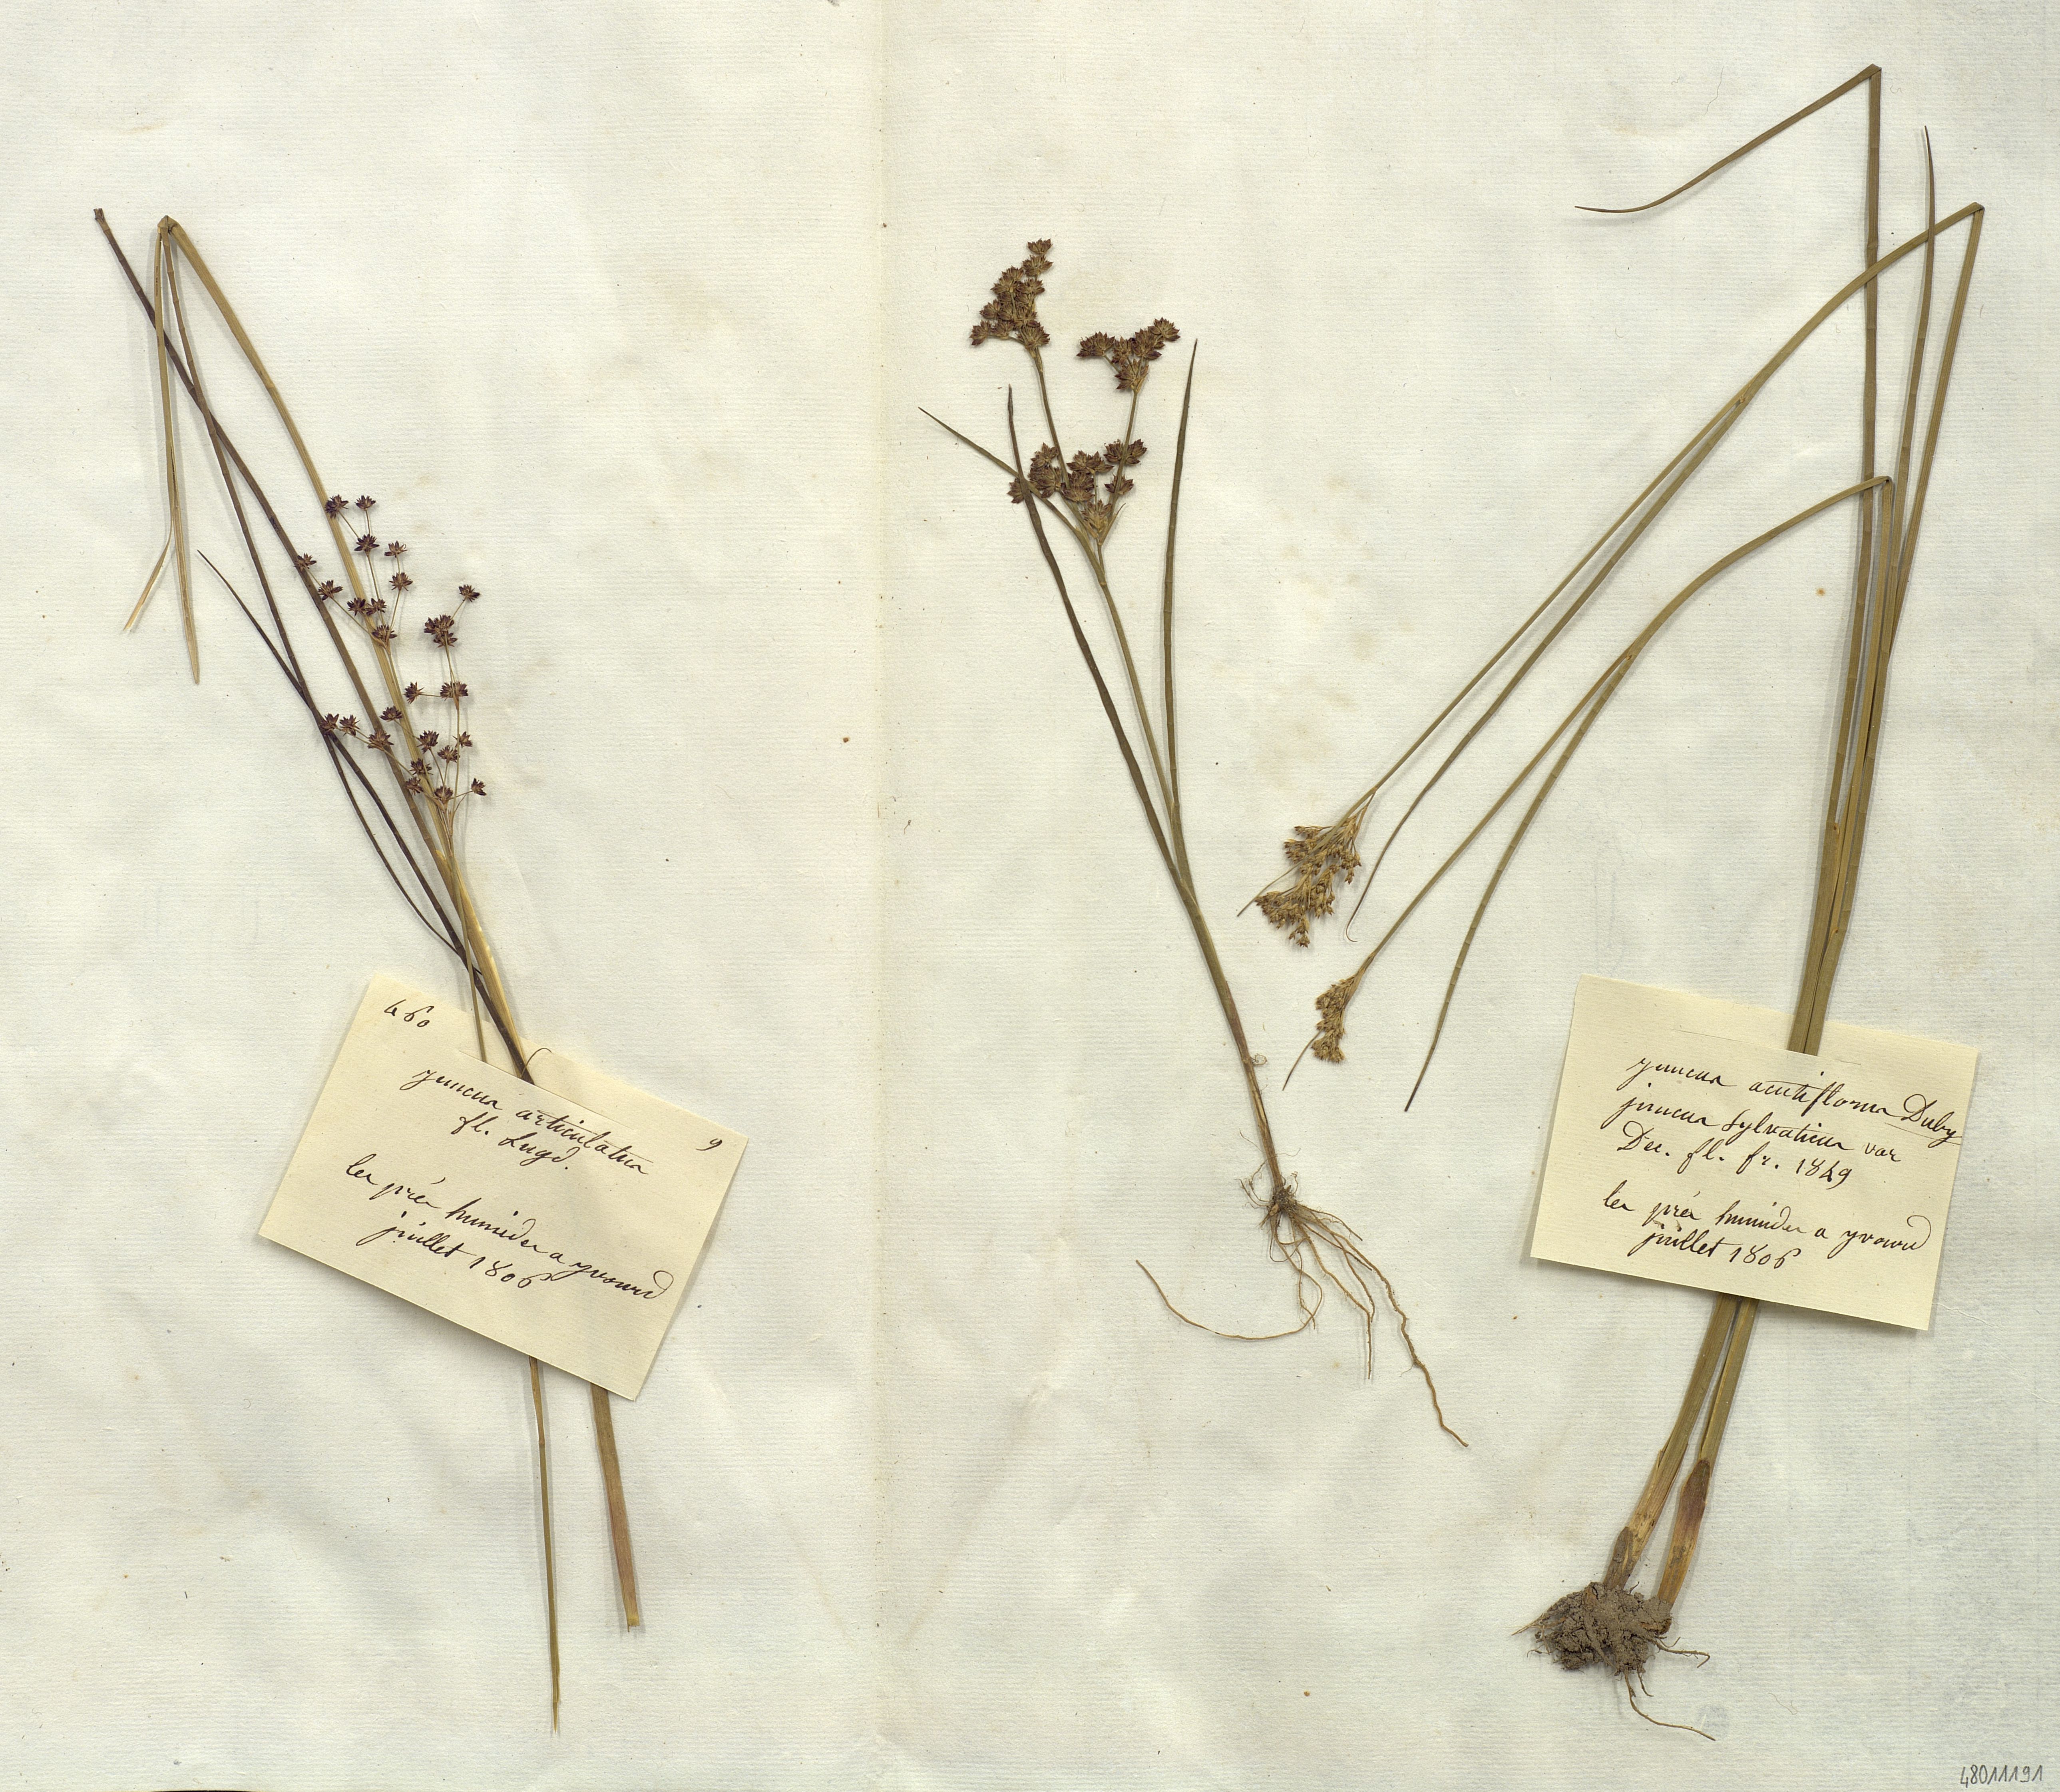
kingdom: Plantae
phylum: Tracheophyta
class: Liliopsida
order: Poales
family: Juncaceae
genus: Juncus
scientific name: Juncus articulatus
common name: Jointed rush
